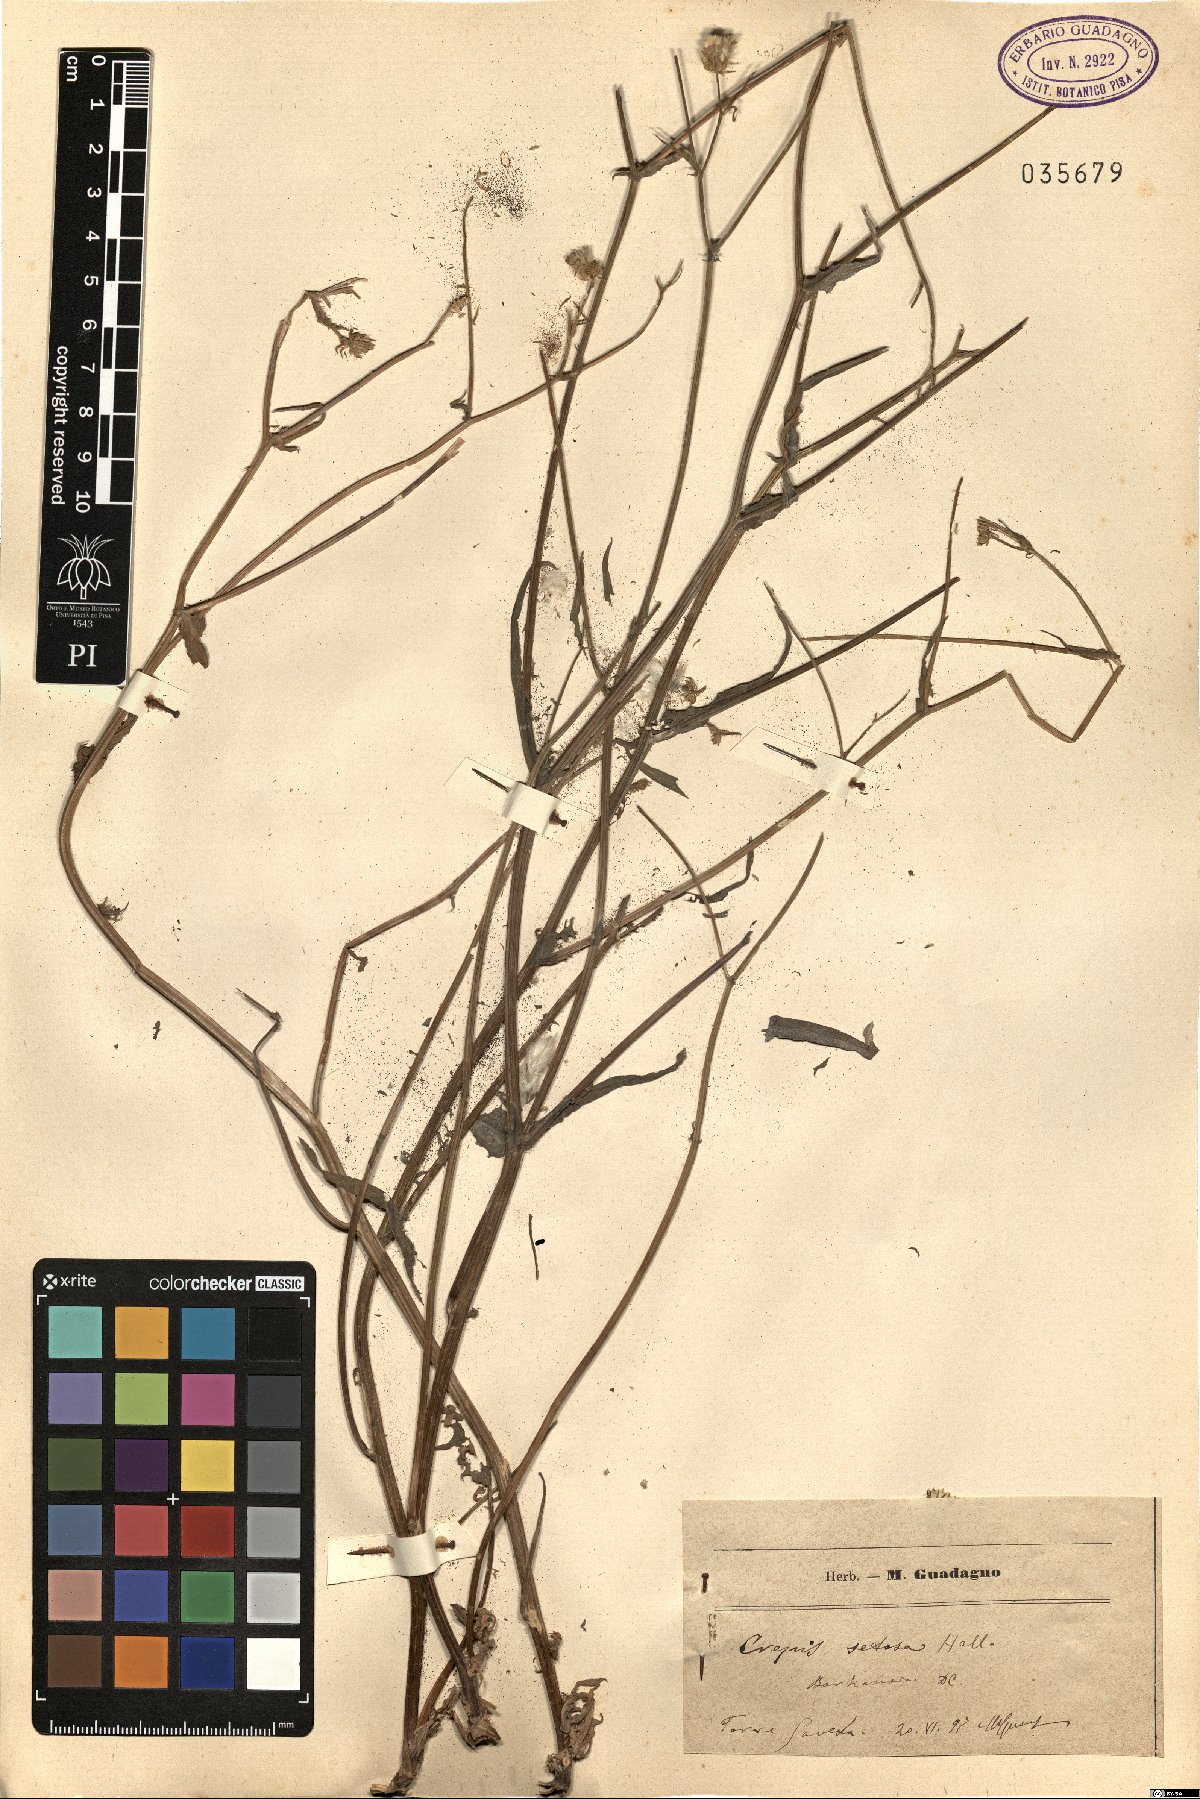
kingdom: Plantae
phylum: Tracheophyta
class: Magnoliopsida
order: Asterales
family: Asteraceae
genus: Crepis
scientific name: Crepis setosa
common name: Bristly hawk's-beard
